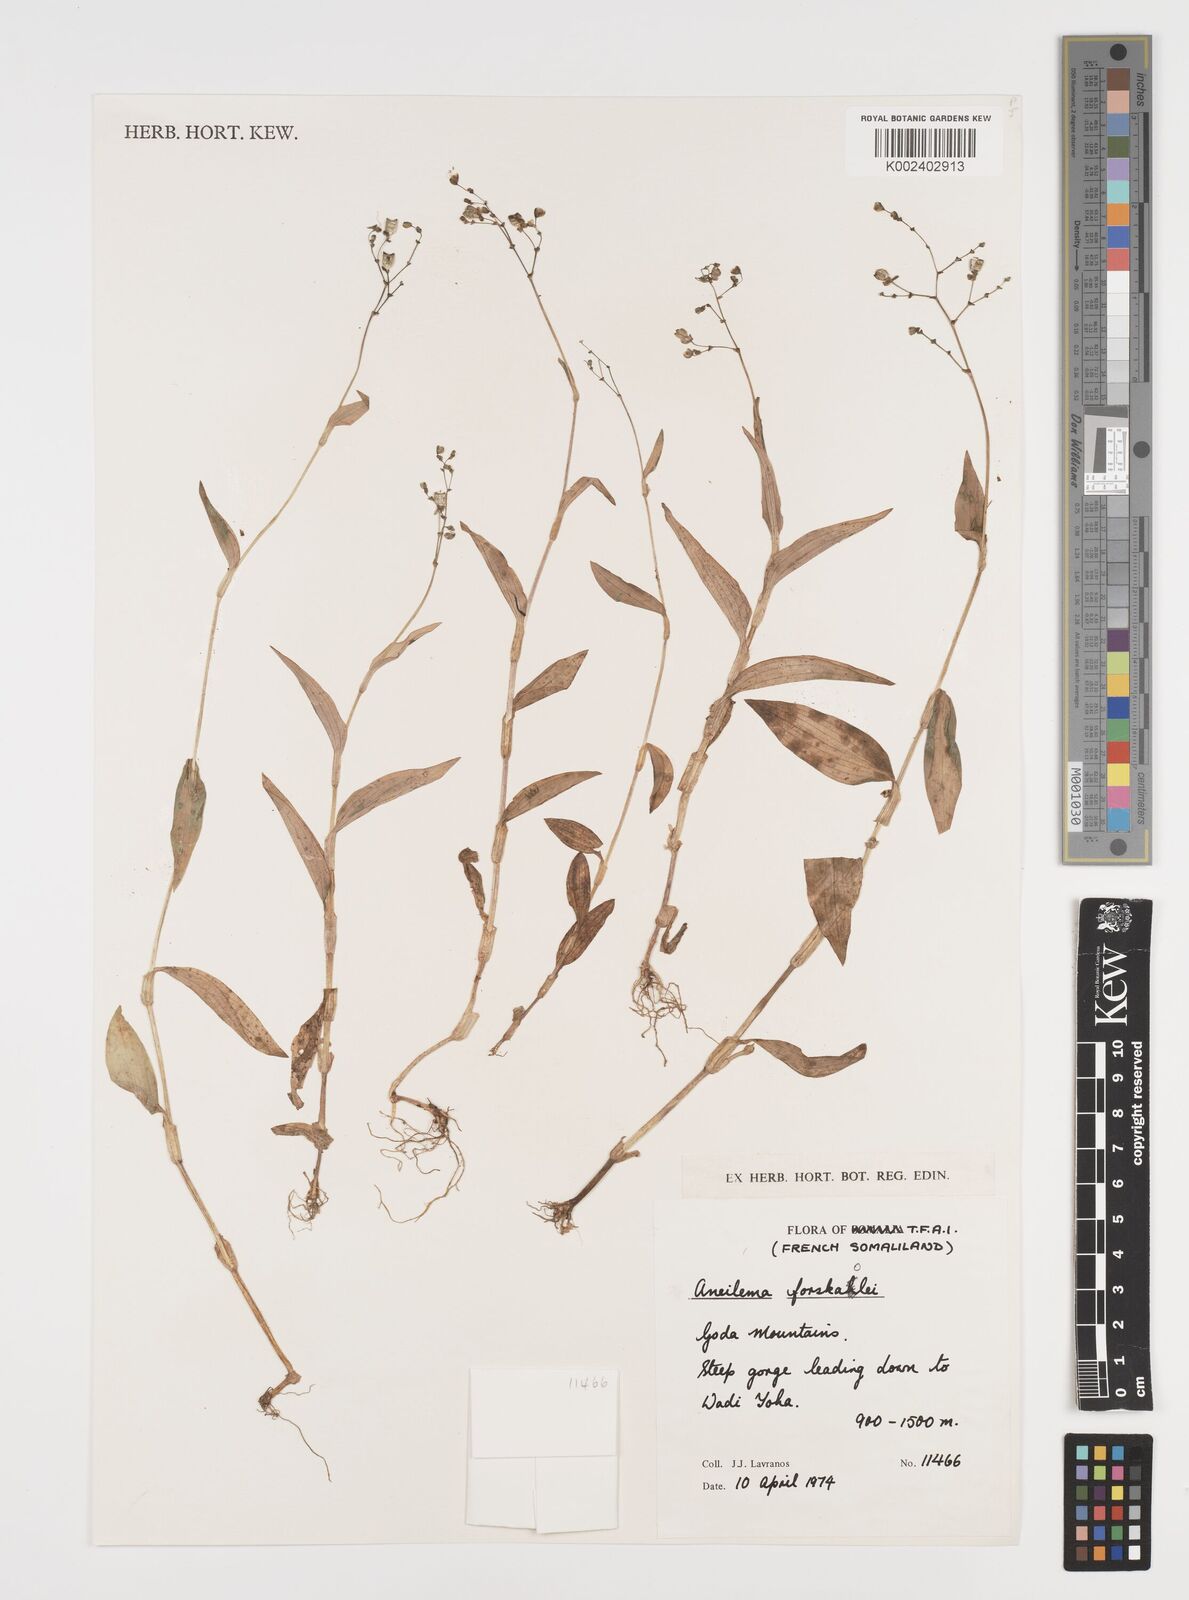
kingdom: Plantae
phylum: Tracheophyta
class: Liliopsida
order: Commelinales
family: Commelinaceae
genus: Aneilema
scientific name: Aneilema forskalii
